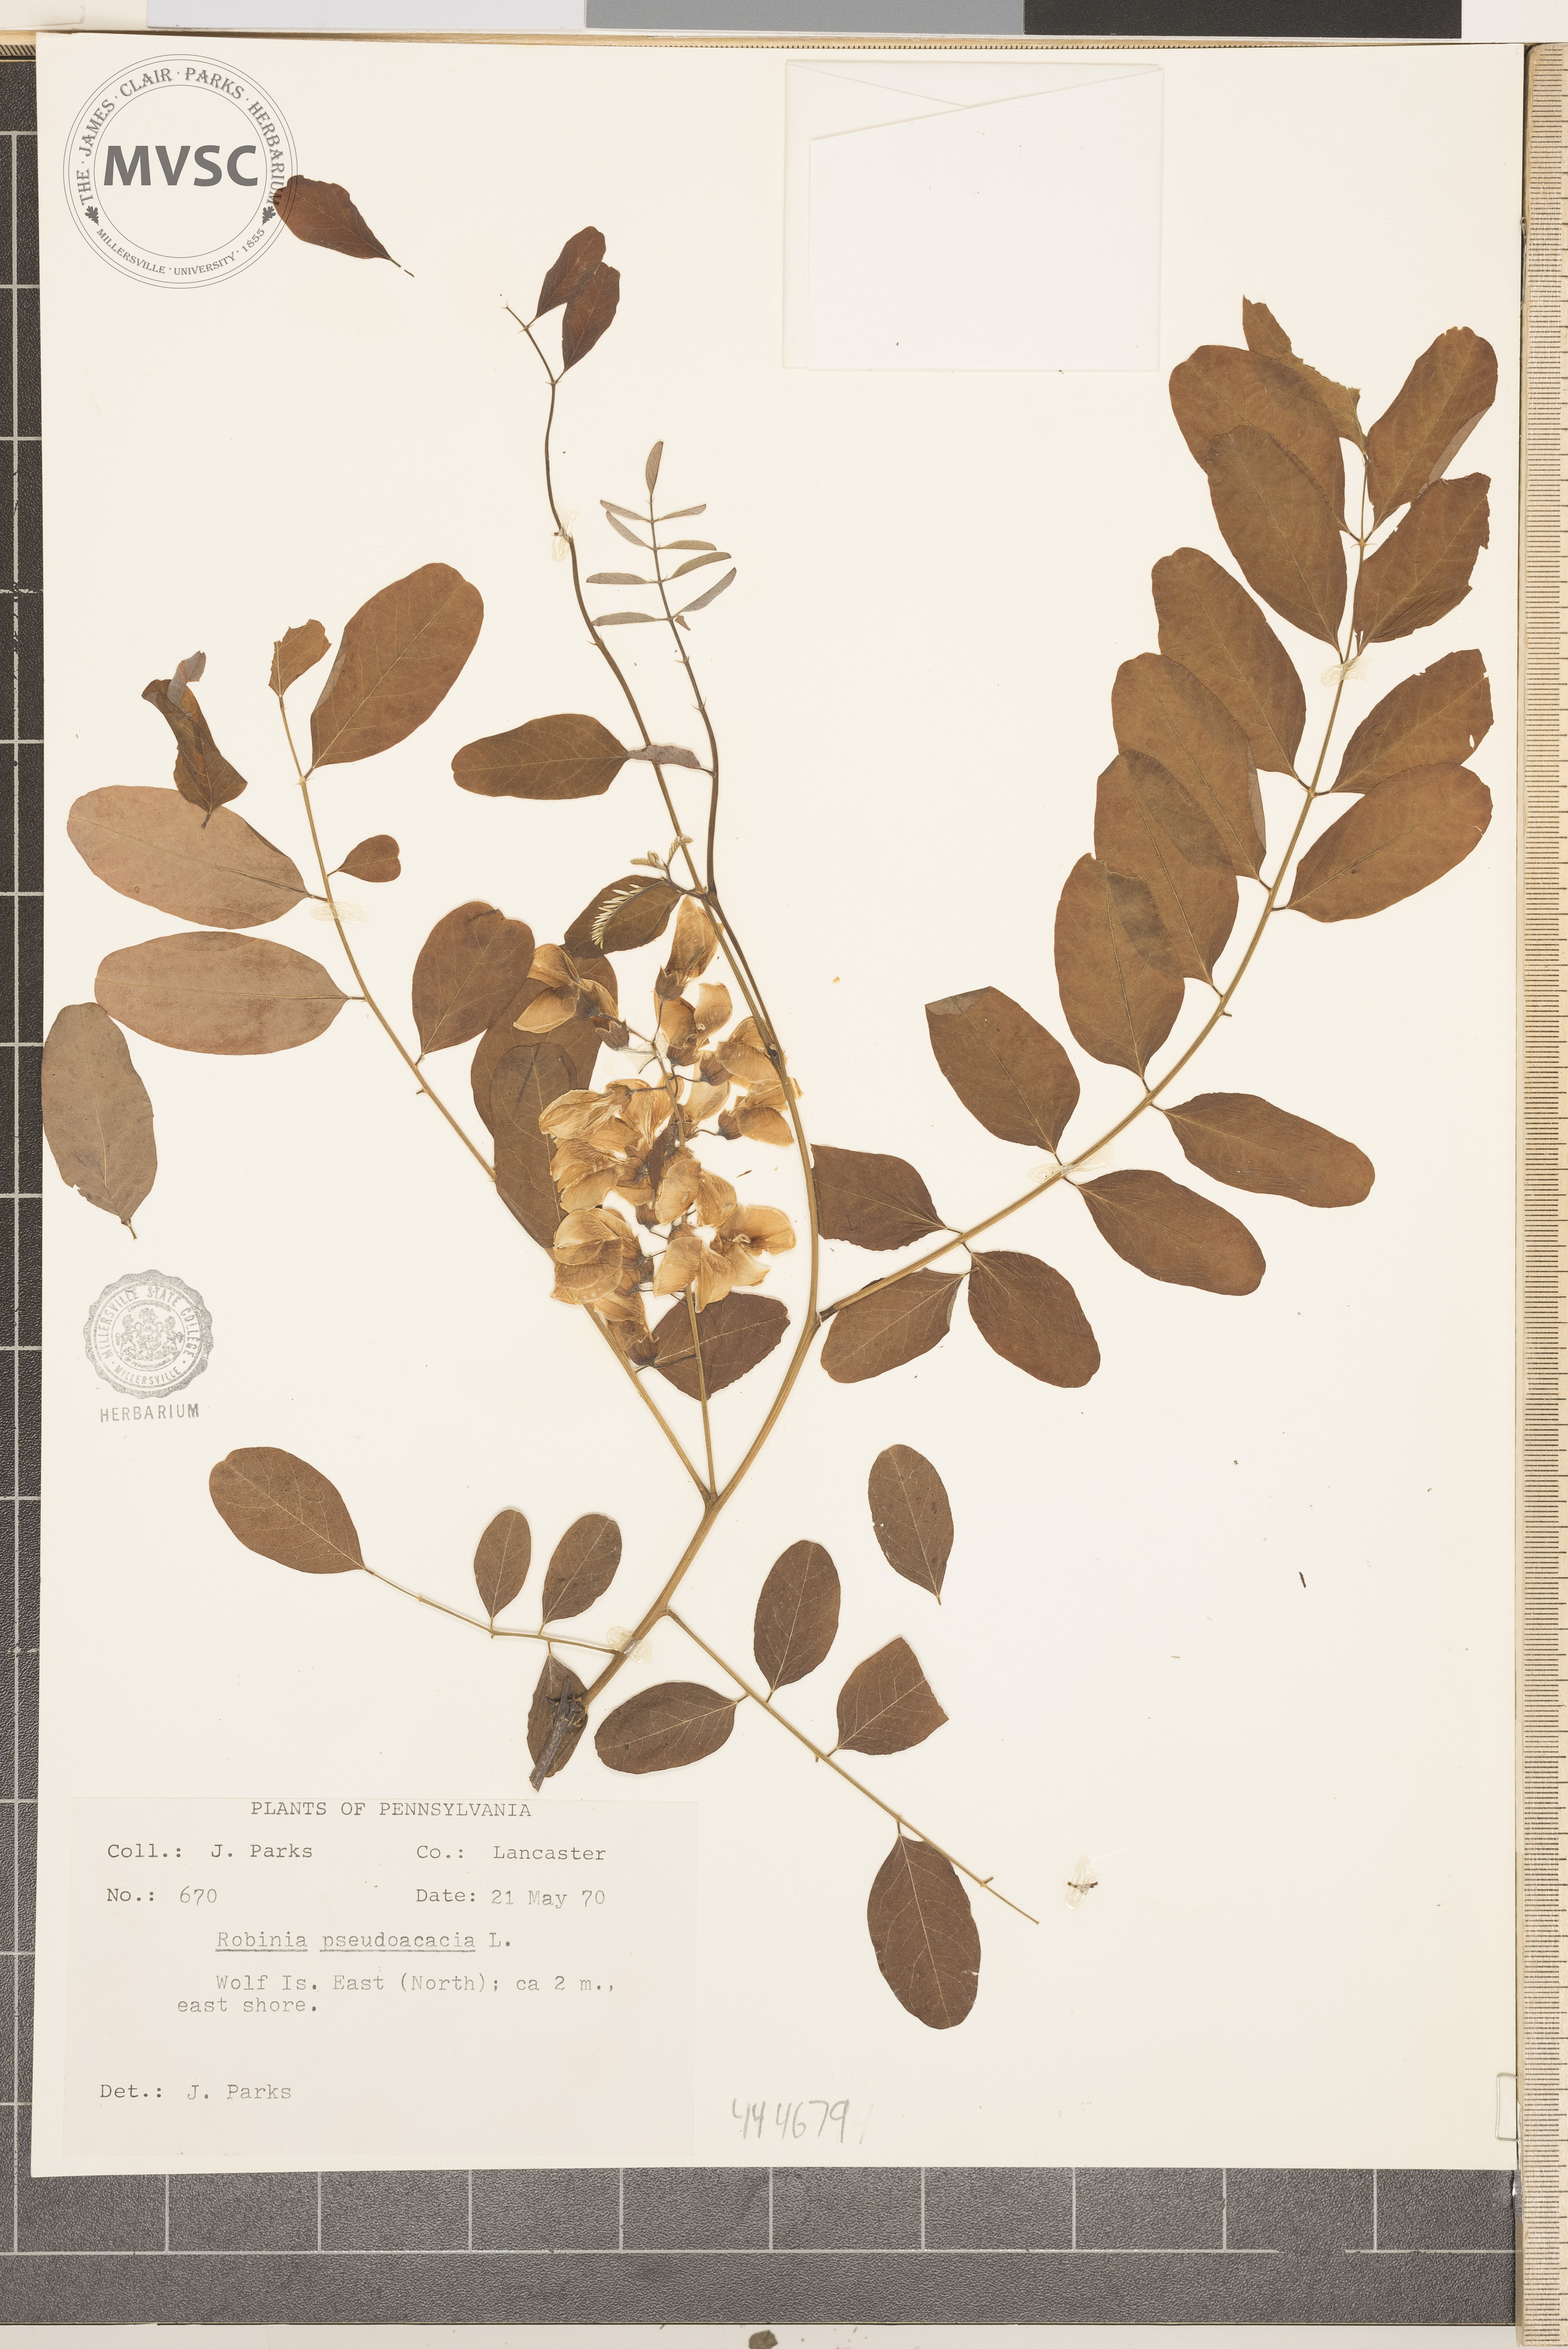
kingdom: Plantae
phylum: Tracheophyta
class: Magnoliopsida
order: Fabales
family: Fabaceae
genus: Robinia
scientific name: Robinia pseudoacacia
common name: Black locust
